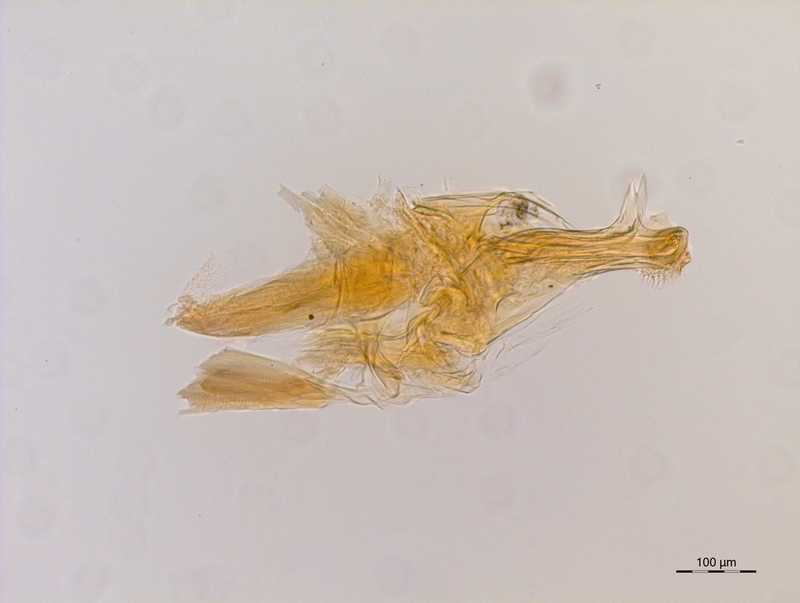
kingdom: Animalia
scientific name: Animalia
